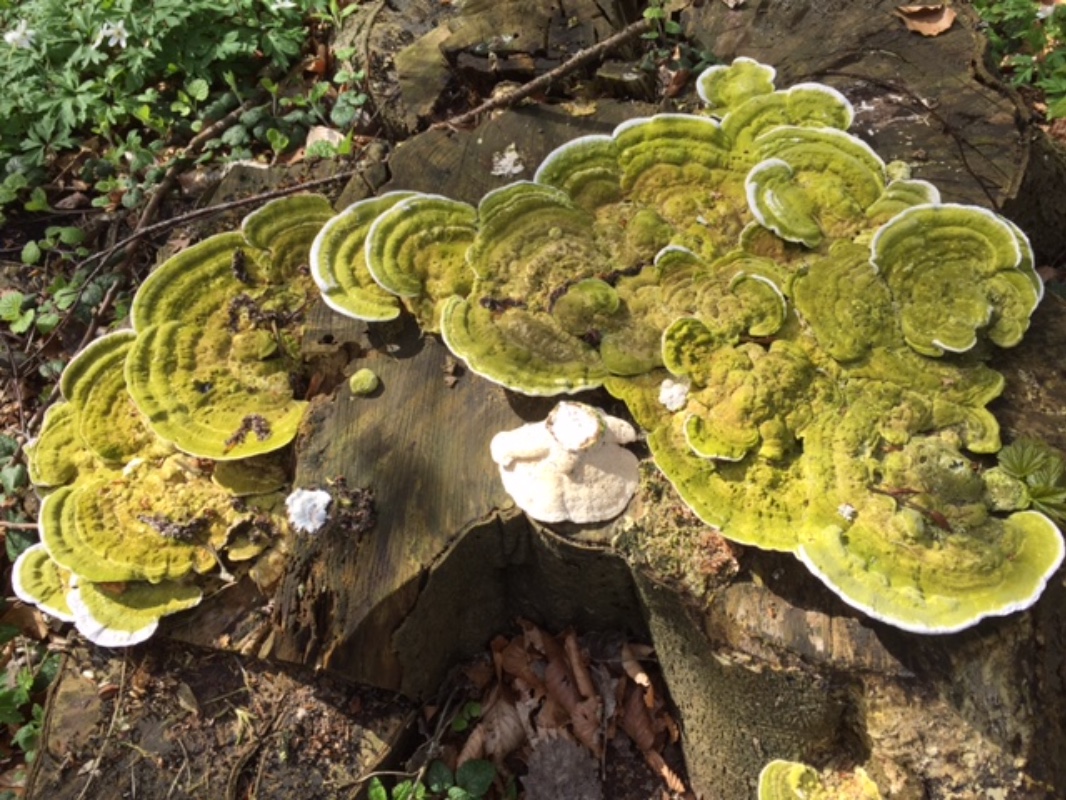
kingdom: Fungi
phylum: Basidiomycota
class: Agaricomycetes
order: Polyporales
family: Polyporaceae
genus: Trametes
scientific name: Trametes gibbosa
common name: puklet læderporesvamp
